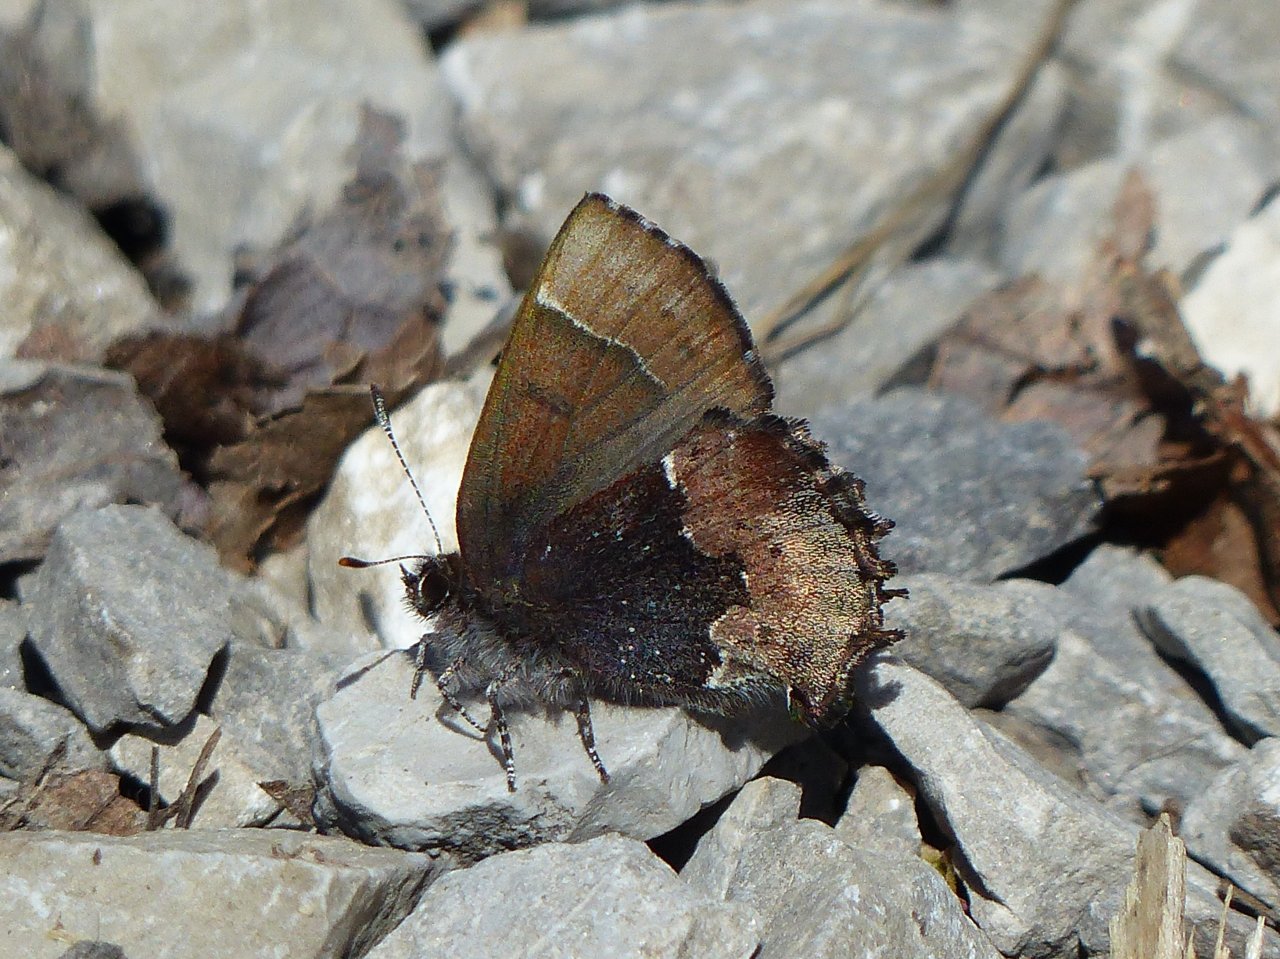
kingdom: Animalia
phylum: Arthropoda
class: Insecta
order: Lepidoptera
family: Lycaenidae
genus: Incisalia
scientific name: Incisalia henrici
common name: Henry's Elfin
